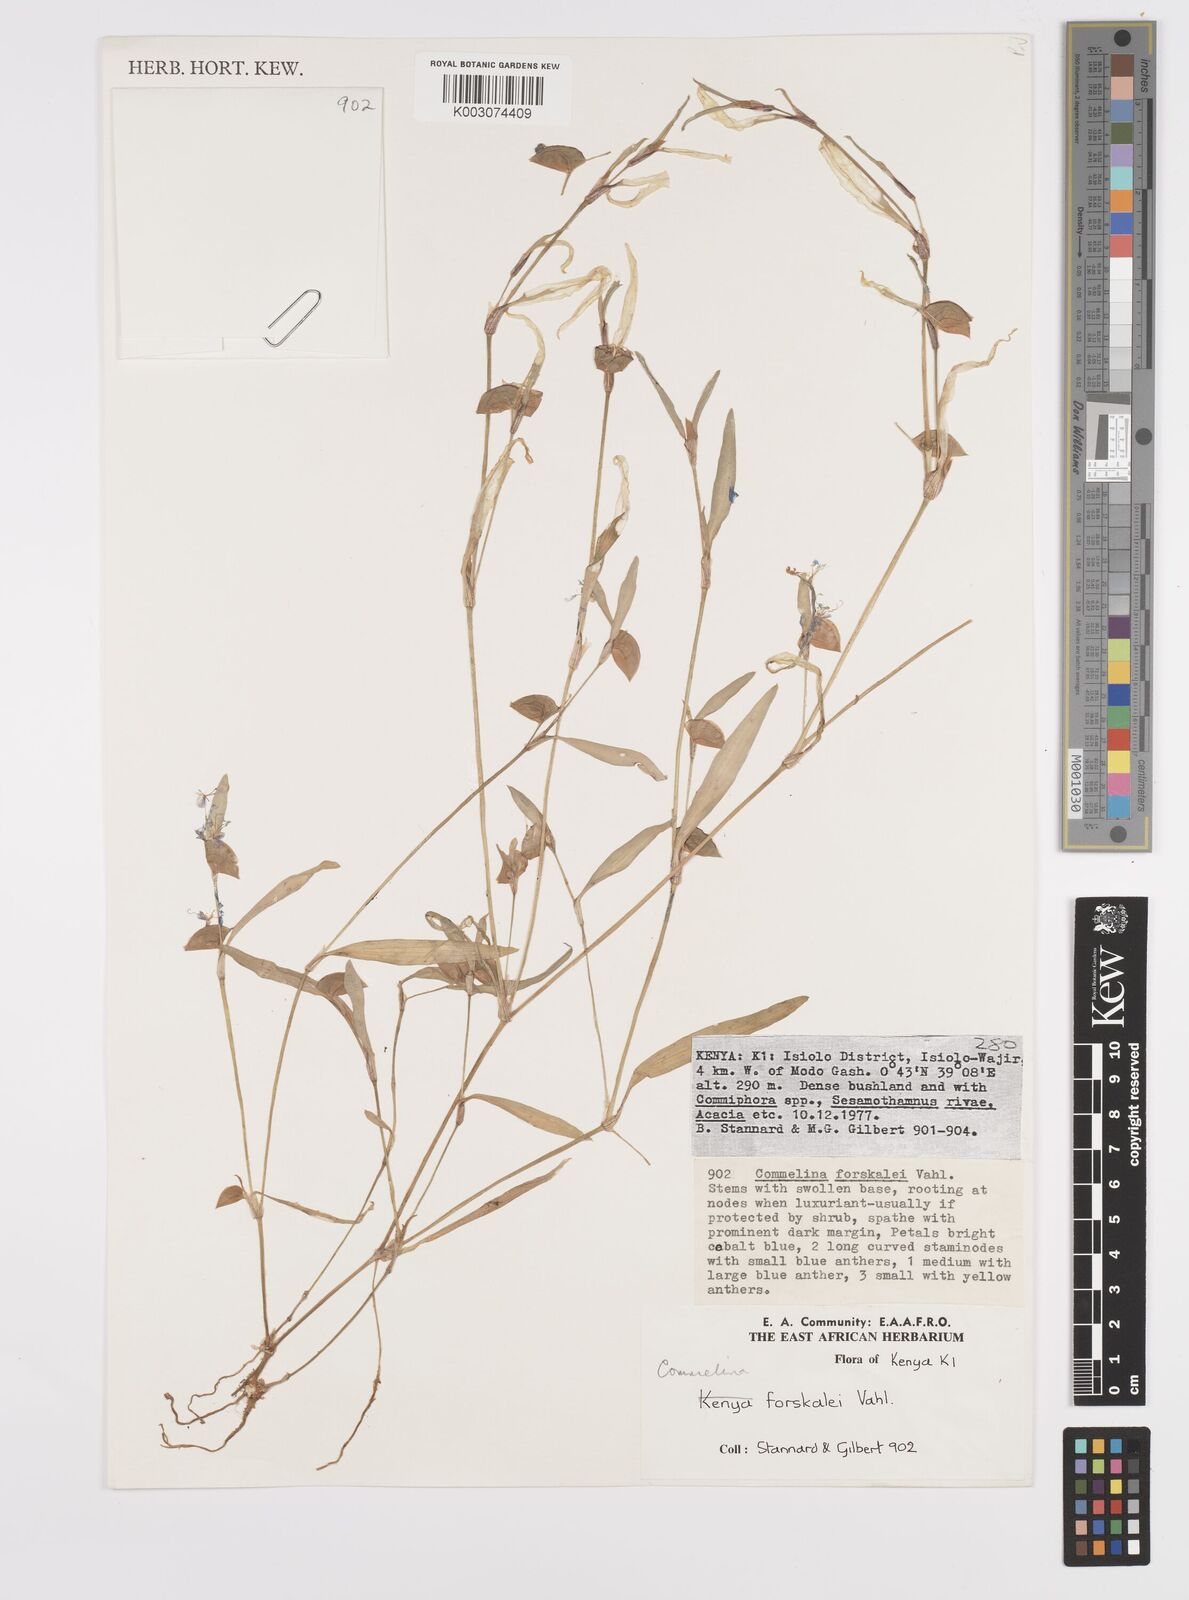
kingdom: Plantae
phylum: Tracheophyta
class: Liliopsida
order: Commelinales
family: Commelinaceae
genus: Commelina
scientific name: Commelina forskaolii
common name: Rat's ear
